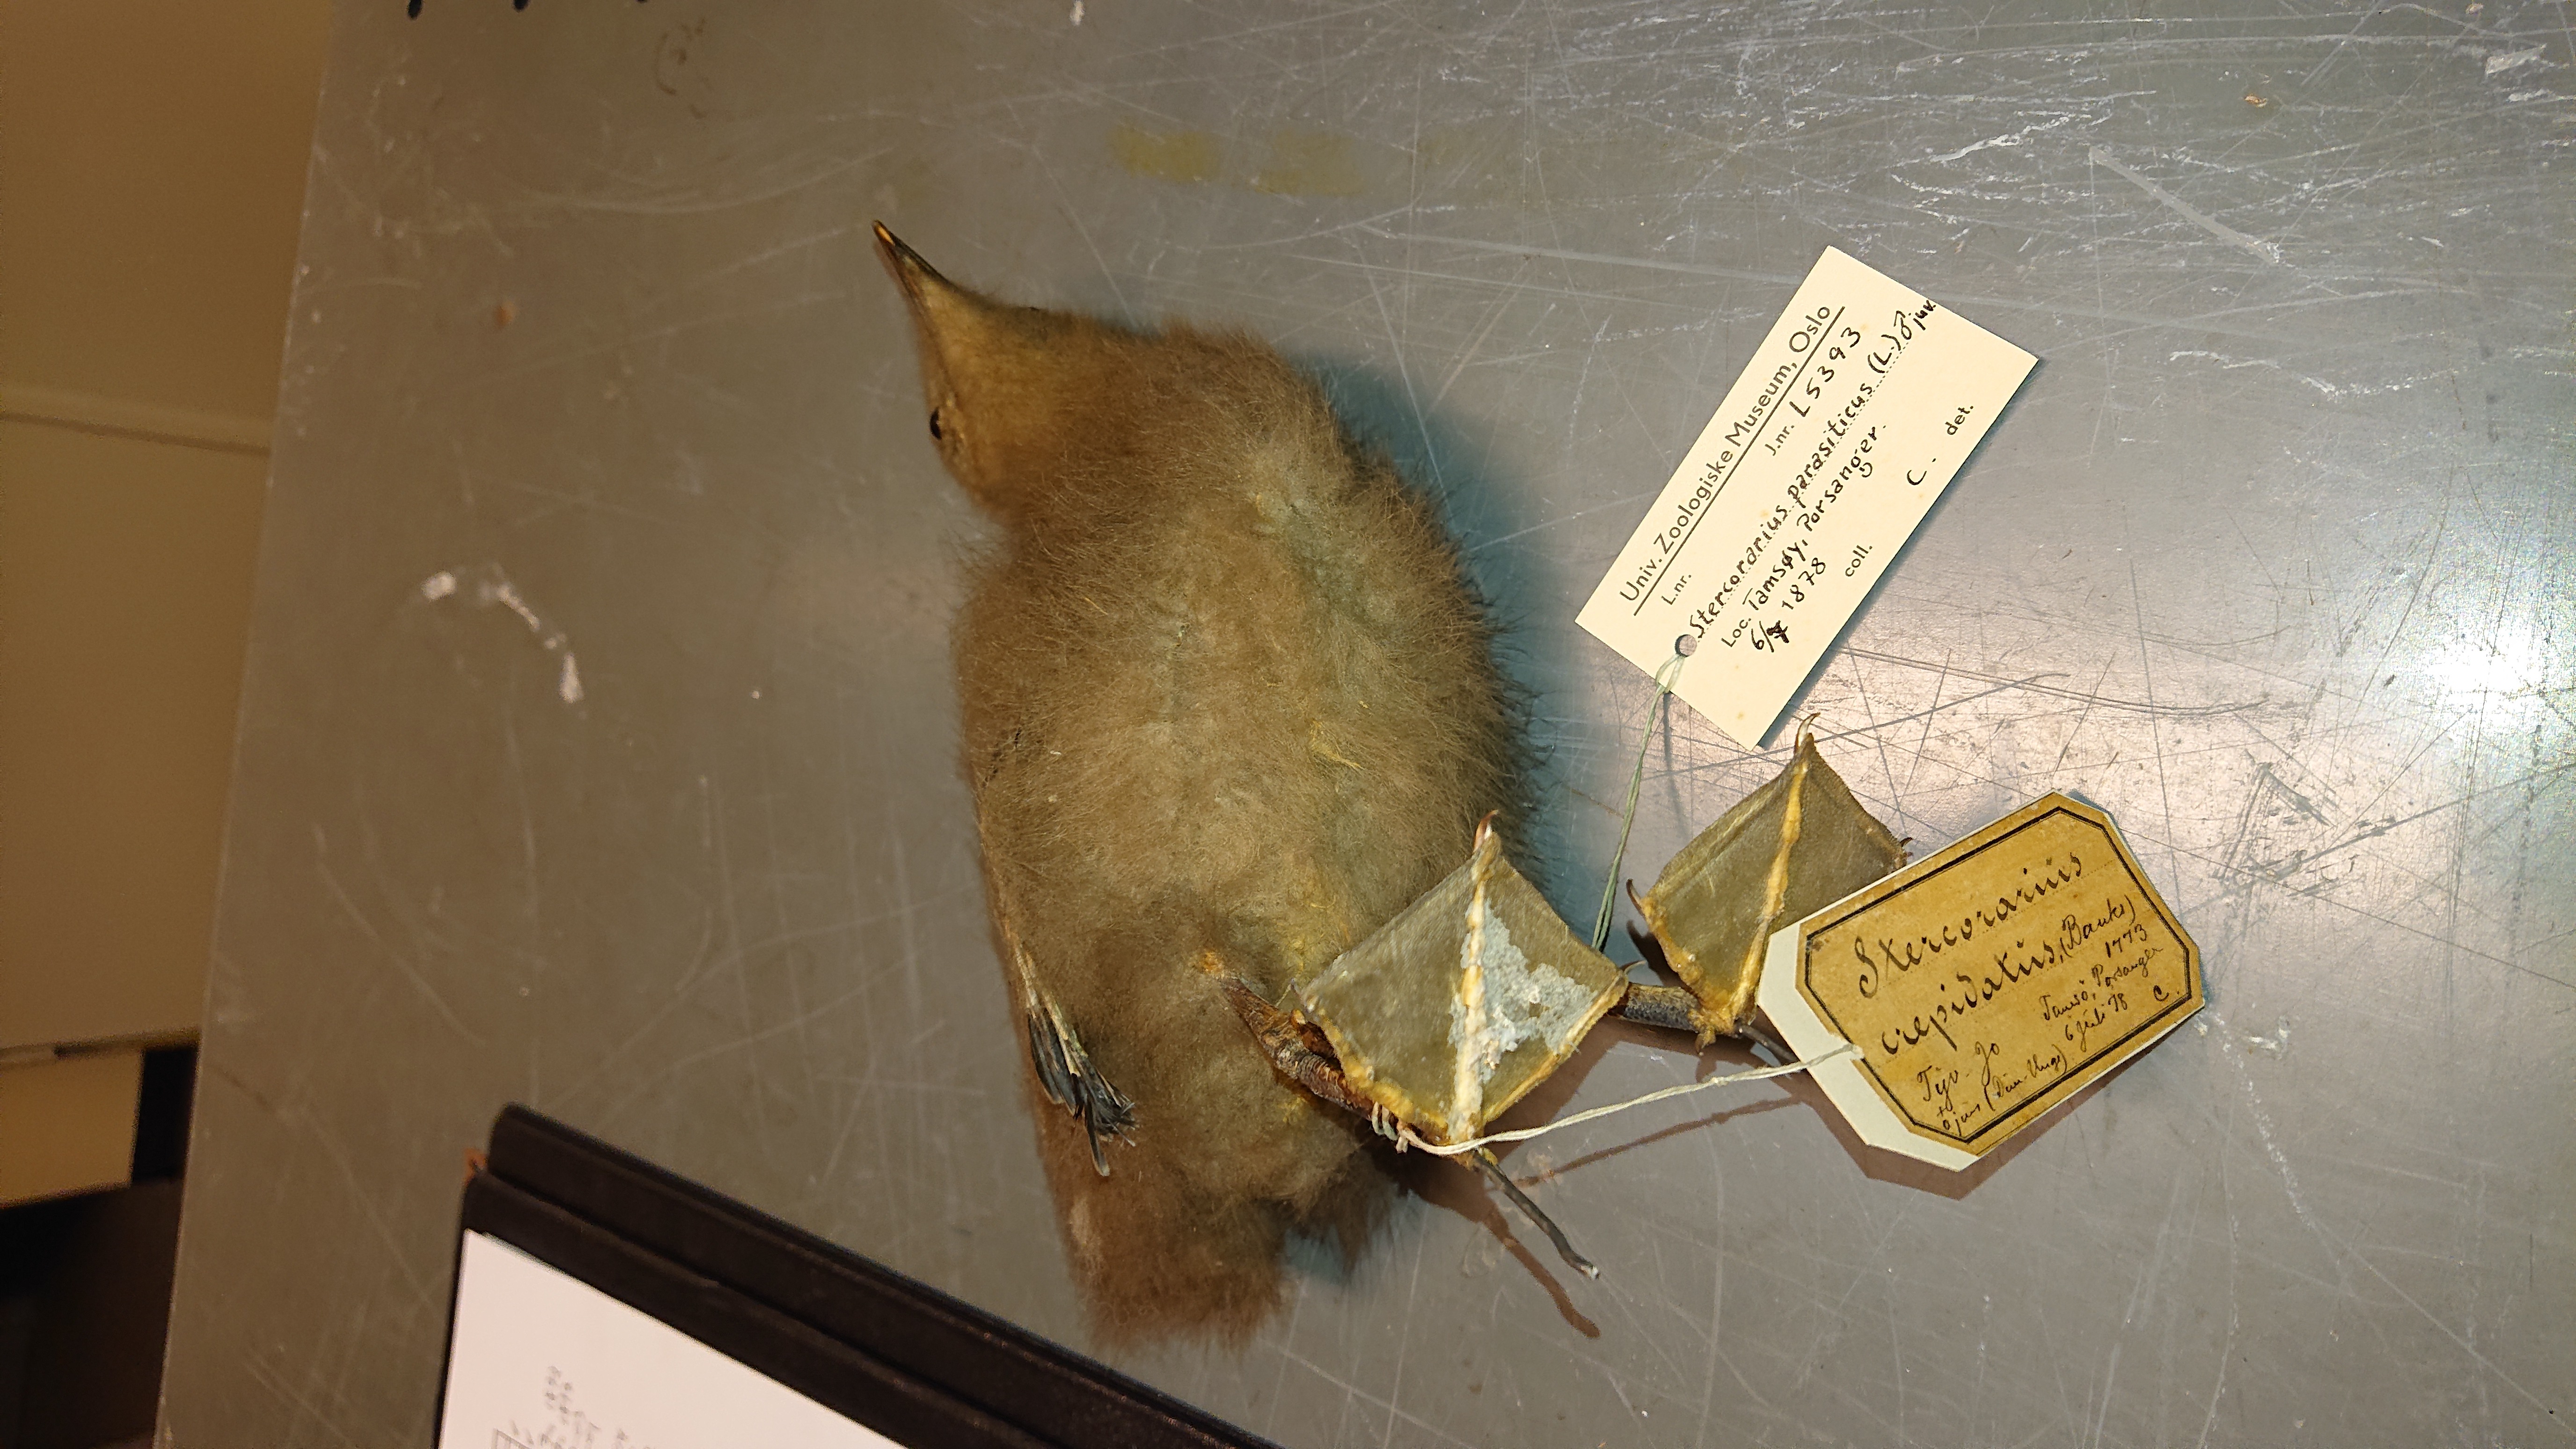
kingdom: Animalia
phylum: Chordata
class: Aves
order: Charadriiformes
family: Stercorariidae
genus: Stercorarius
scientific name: Stercorarius parasiticus
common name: Parasitic jaeger
